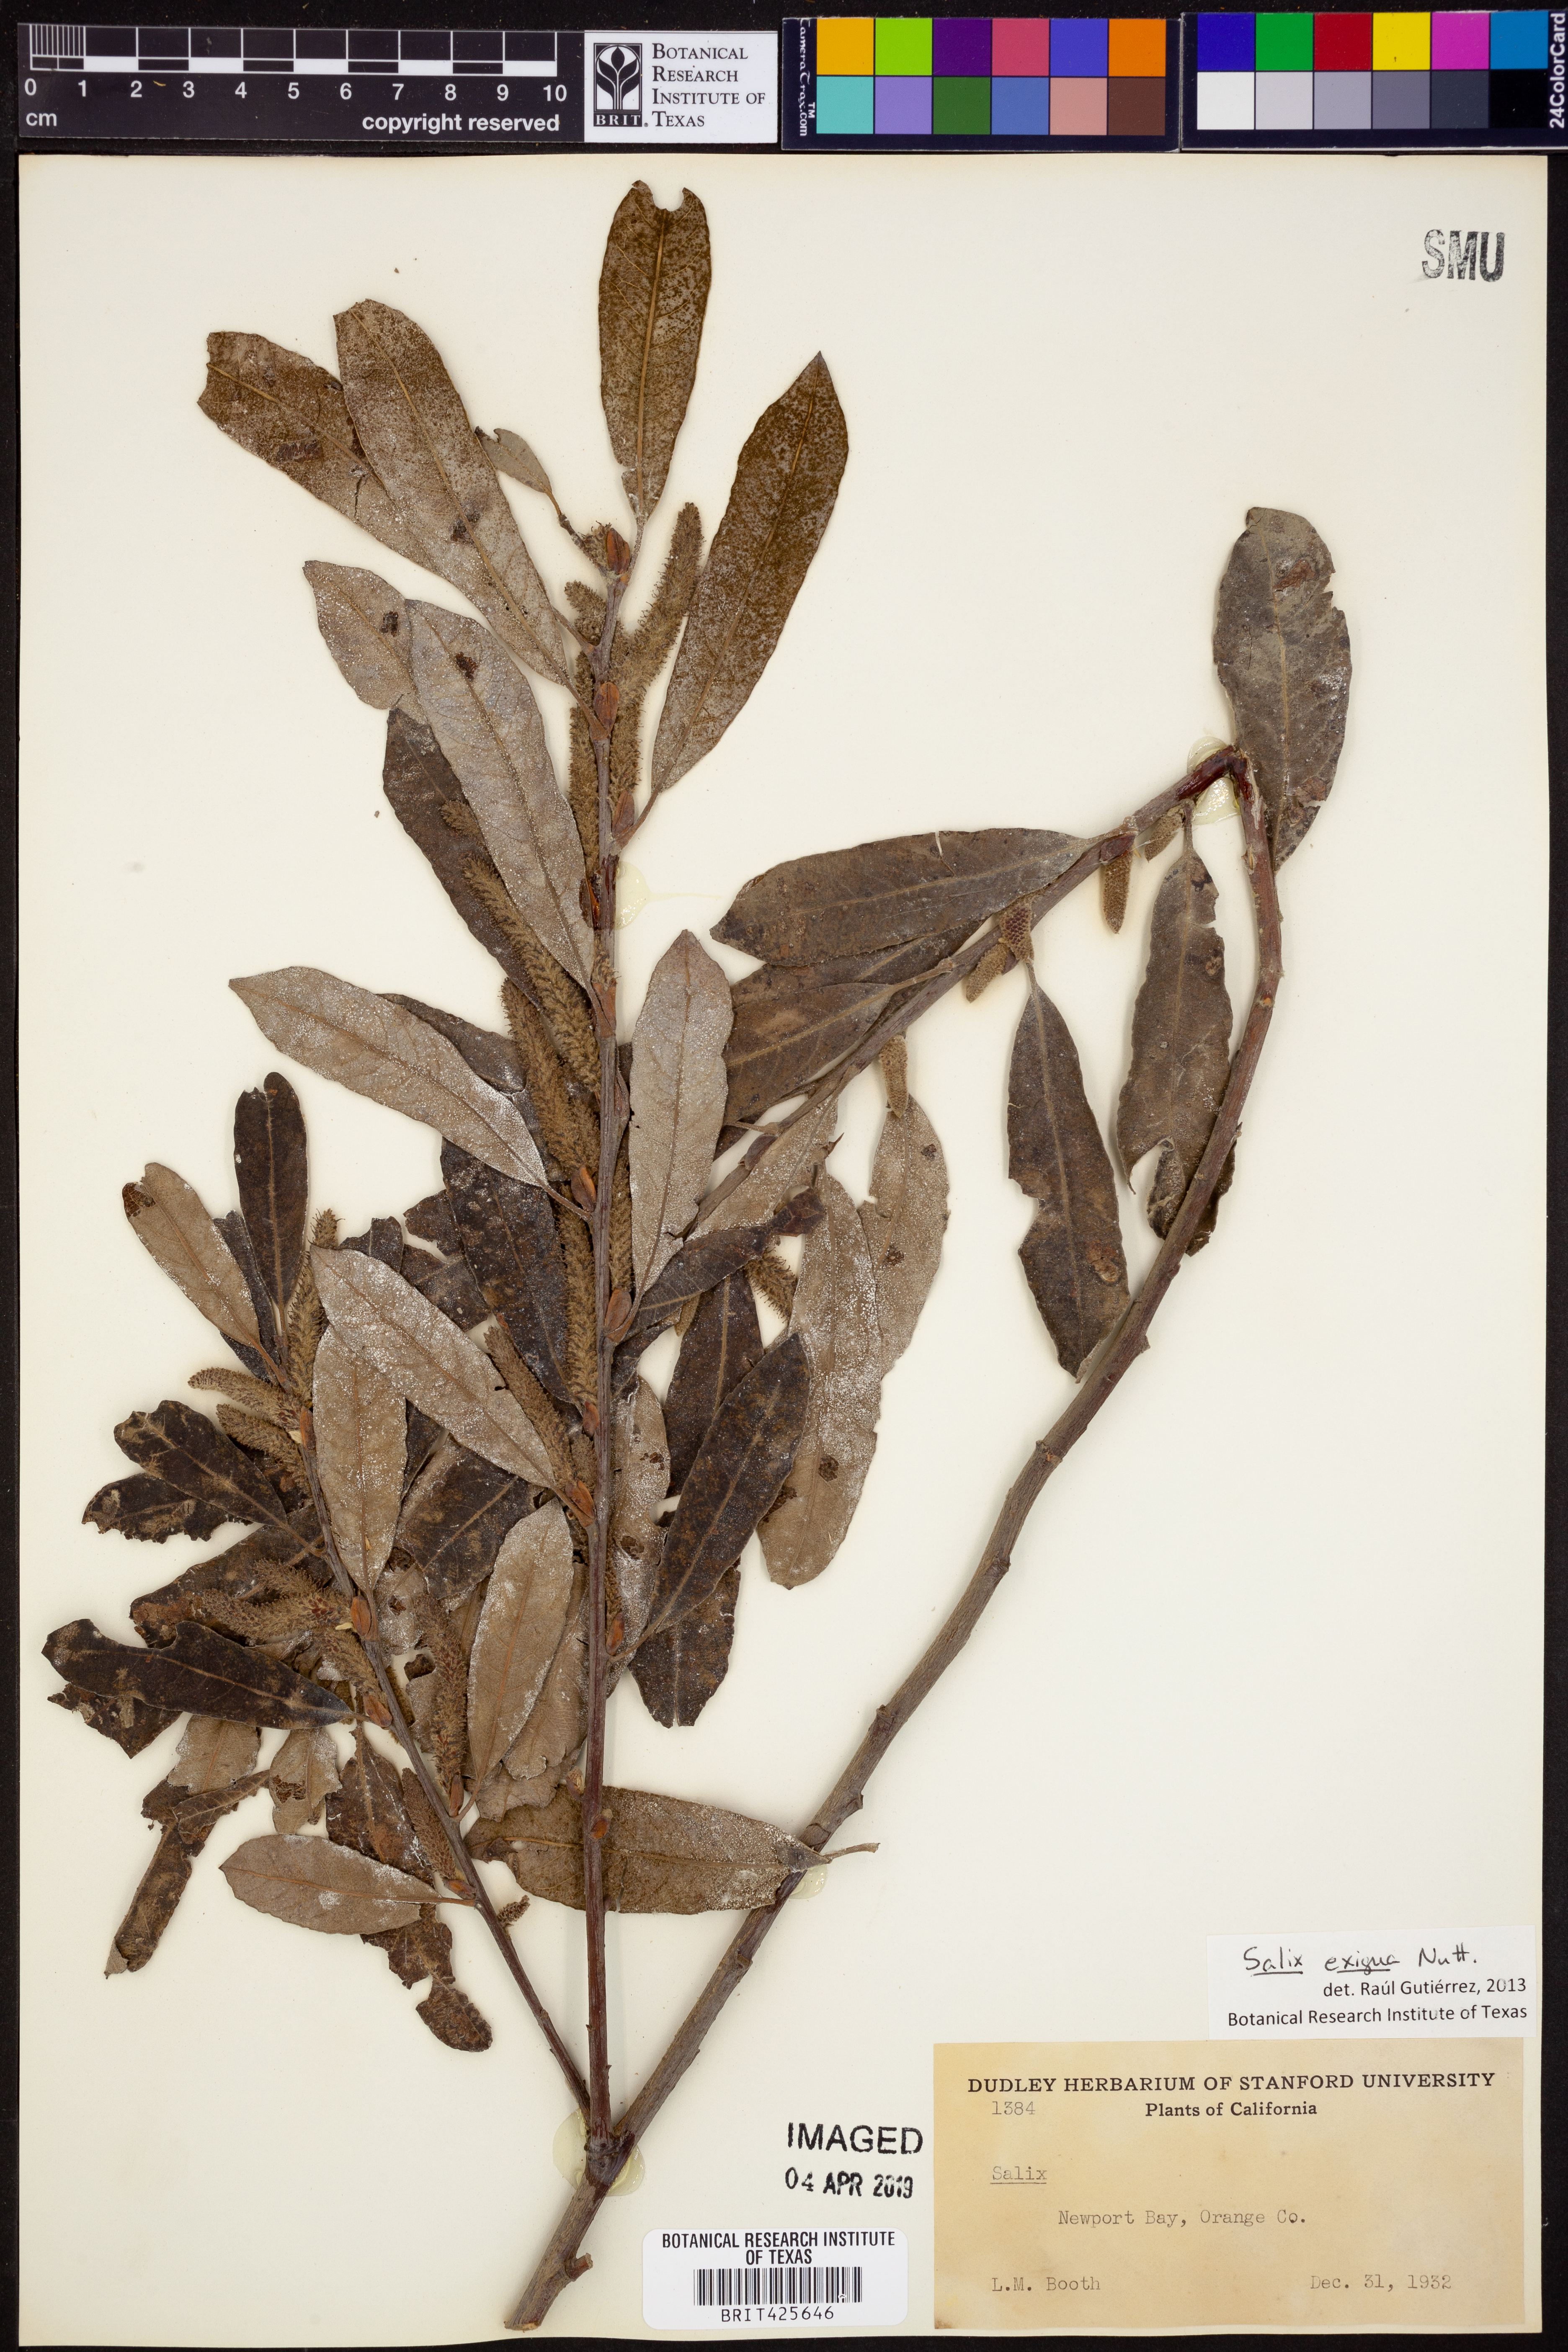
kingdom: Plantae
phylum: Tracheophyta
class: Magnoliopsida
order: Malpighiales
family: Salicaceae
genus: Salix
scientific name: Salix exigua
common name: Coyote willow
